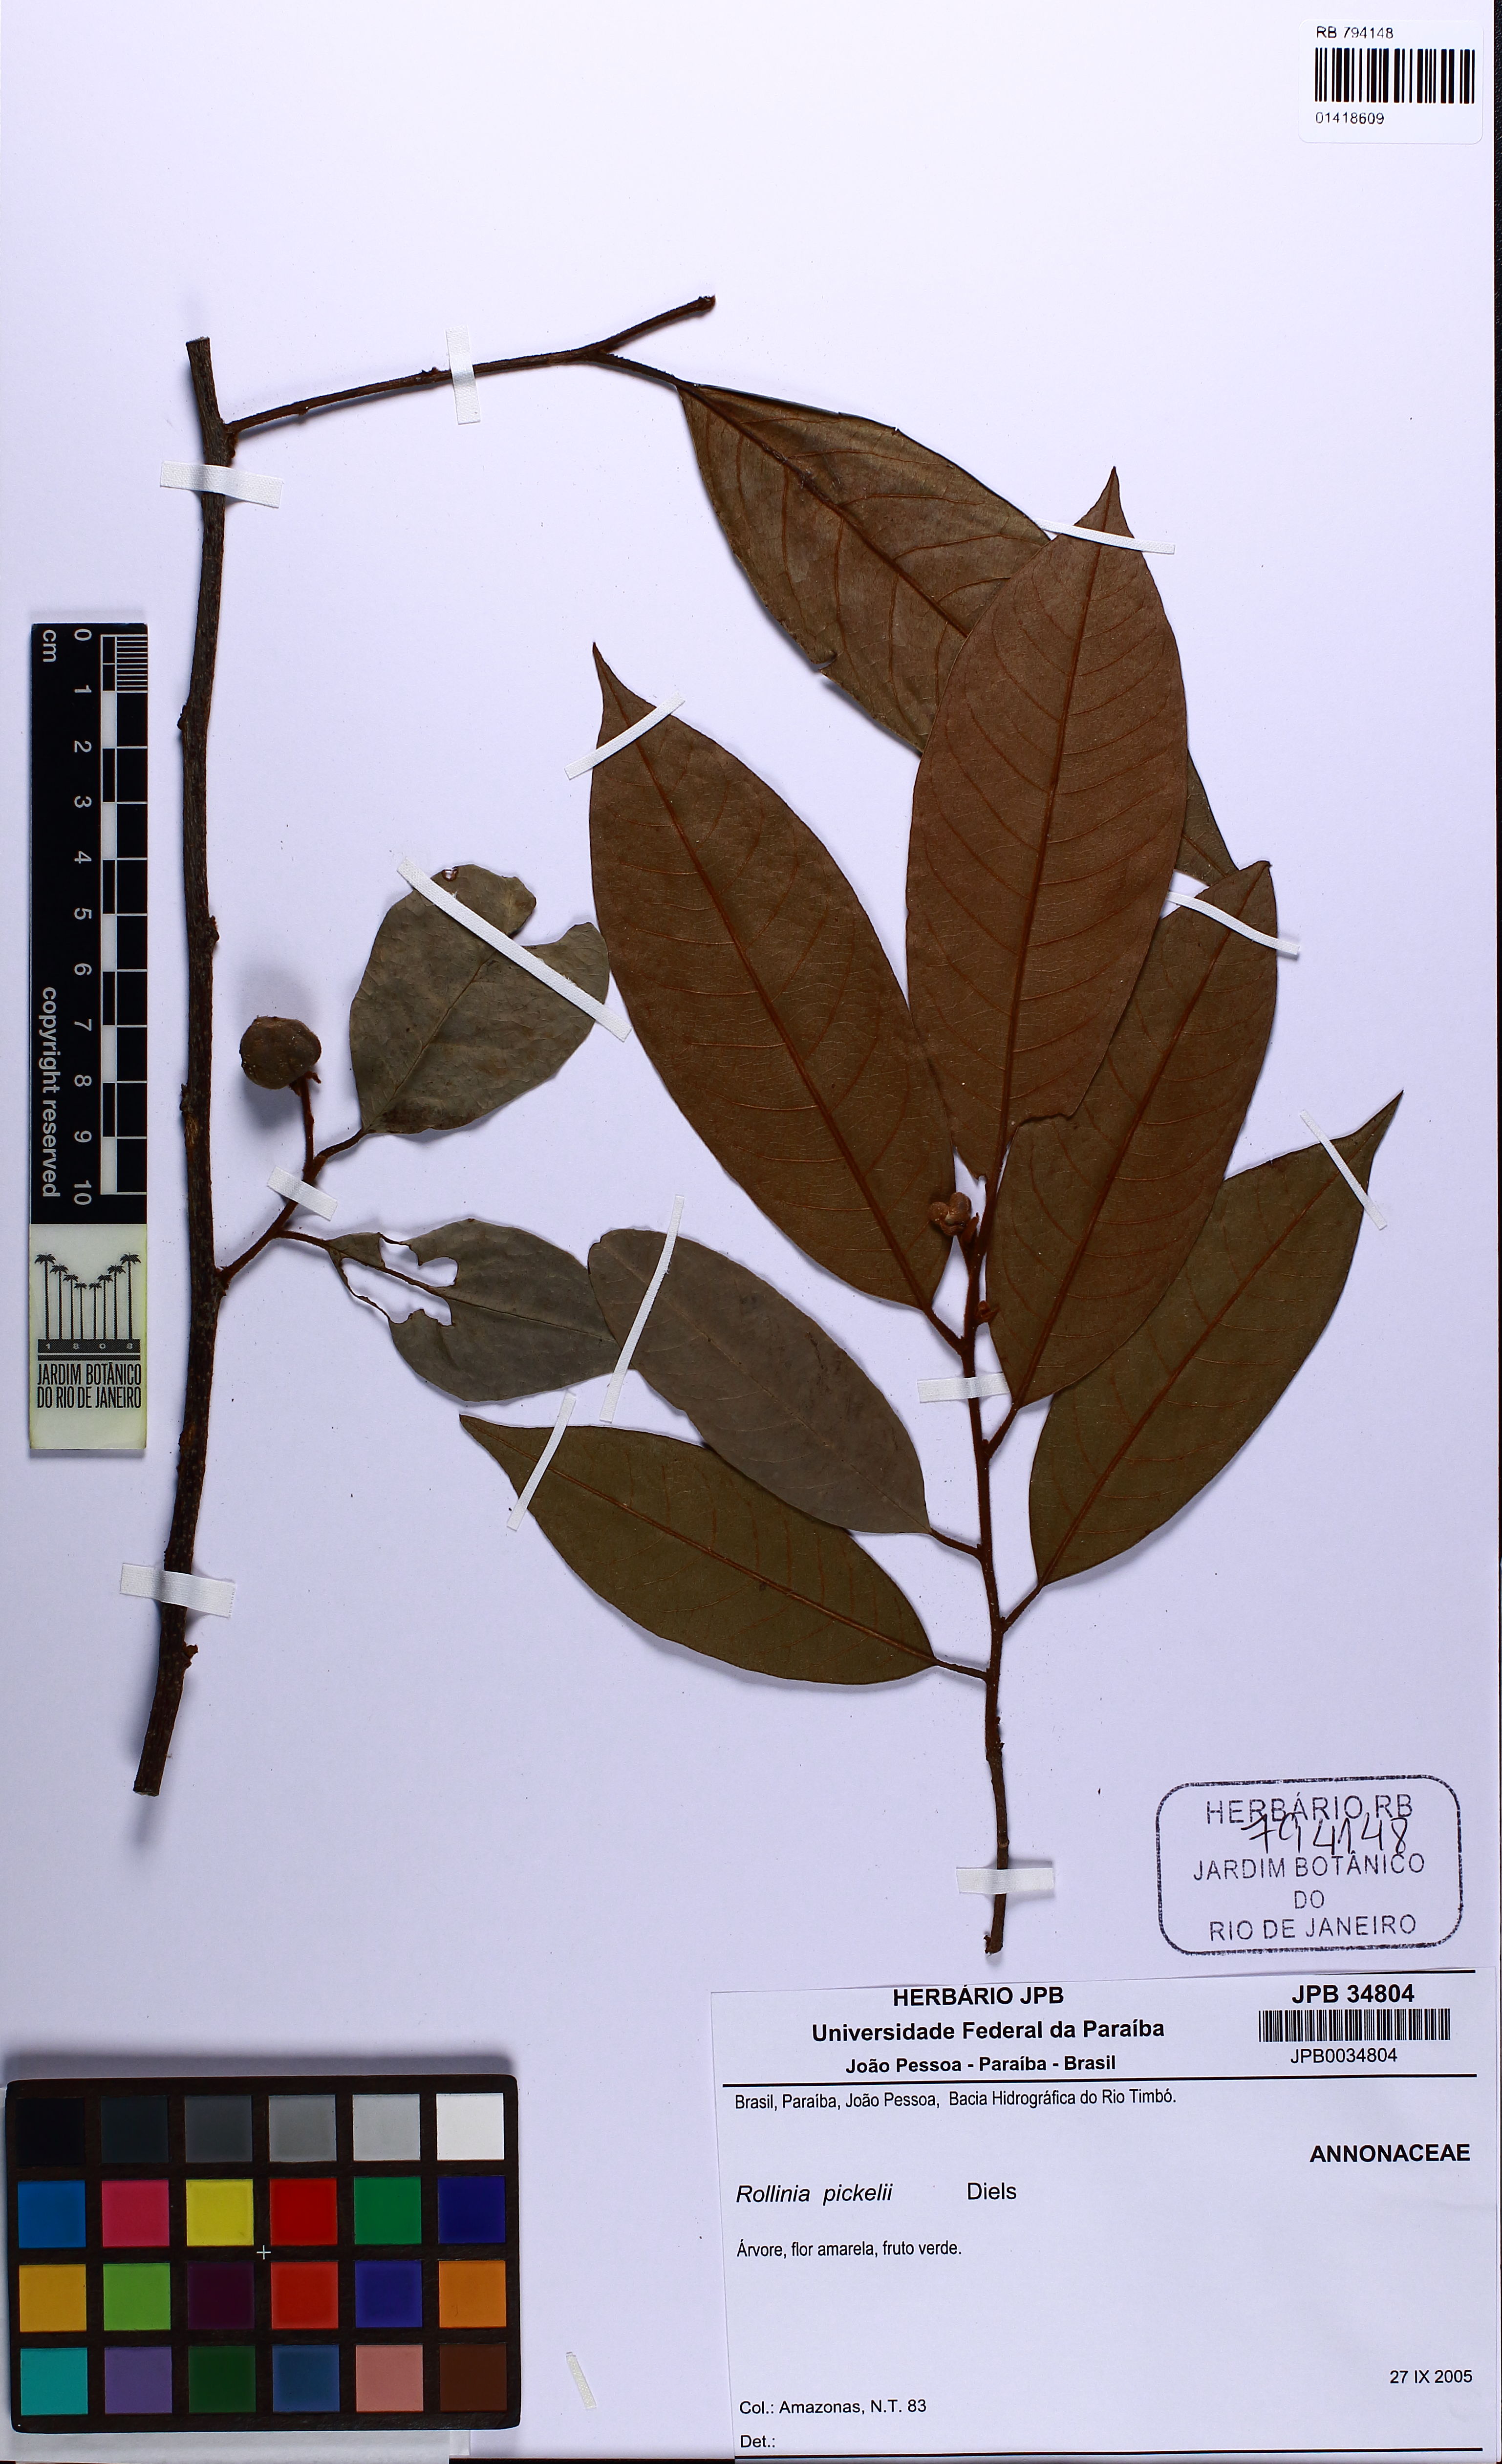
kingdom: Plantae
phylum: Tracheophyta
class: Magnoliopsida
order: Magnoliales
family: Annonaceae
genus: Annona
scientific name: Annona pickelii
